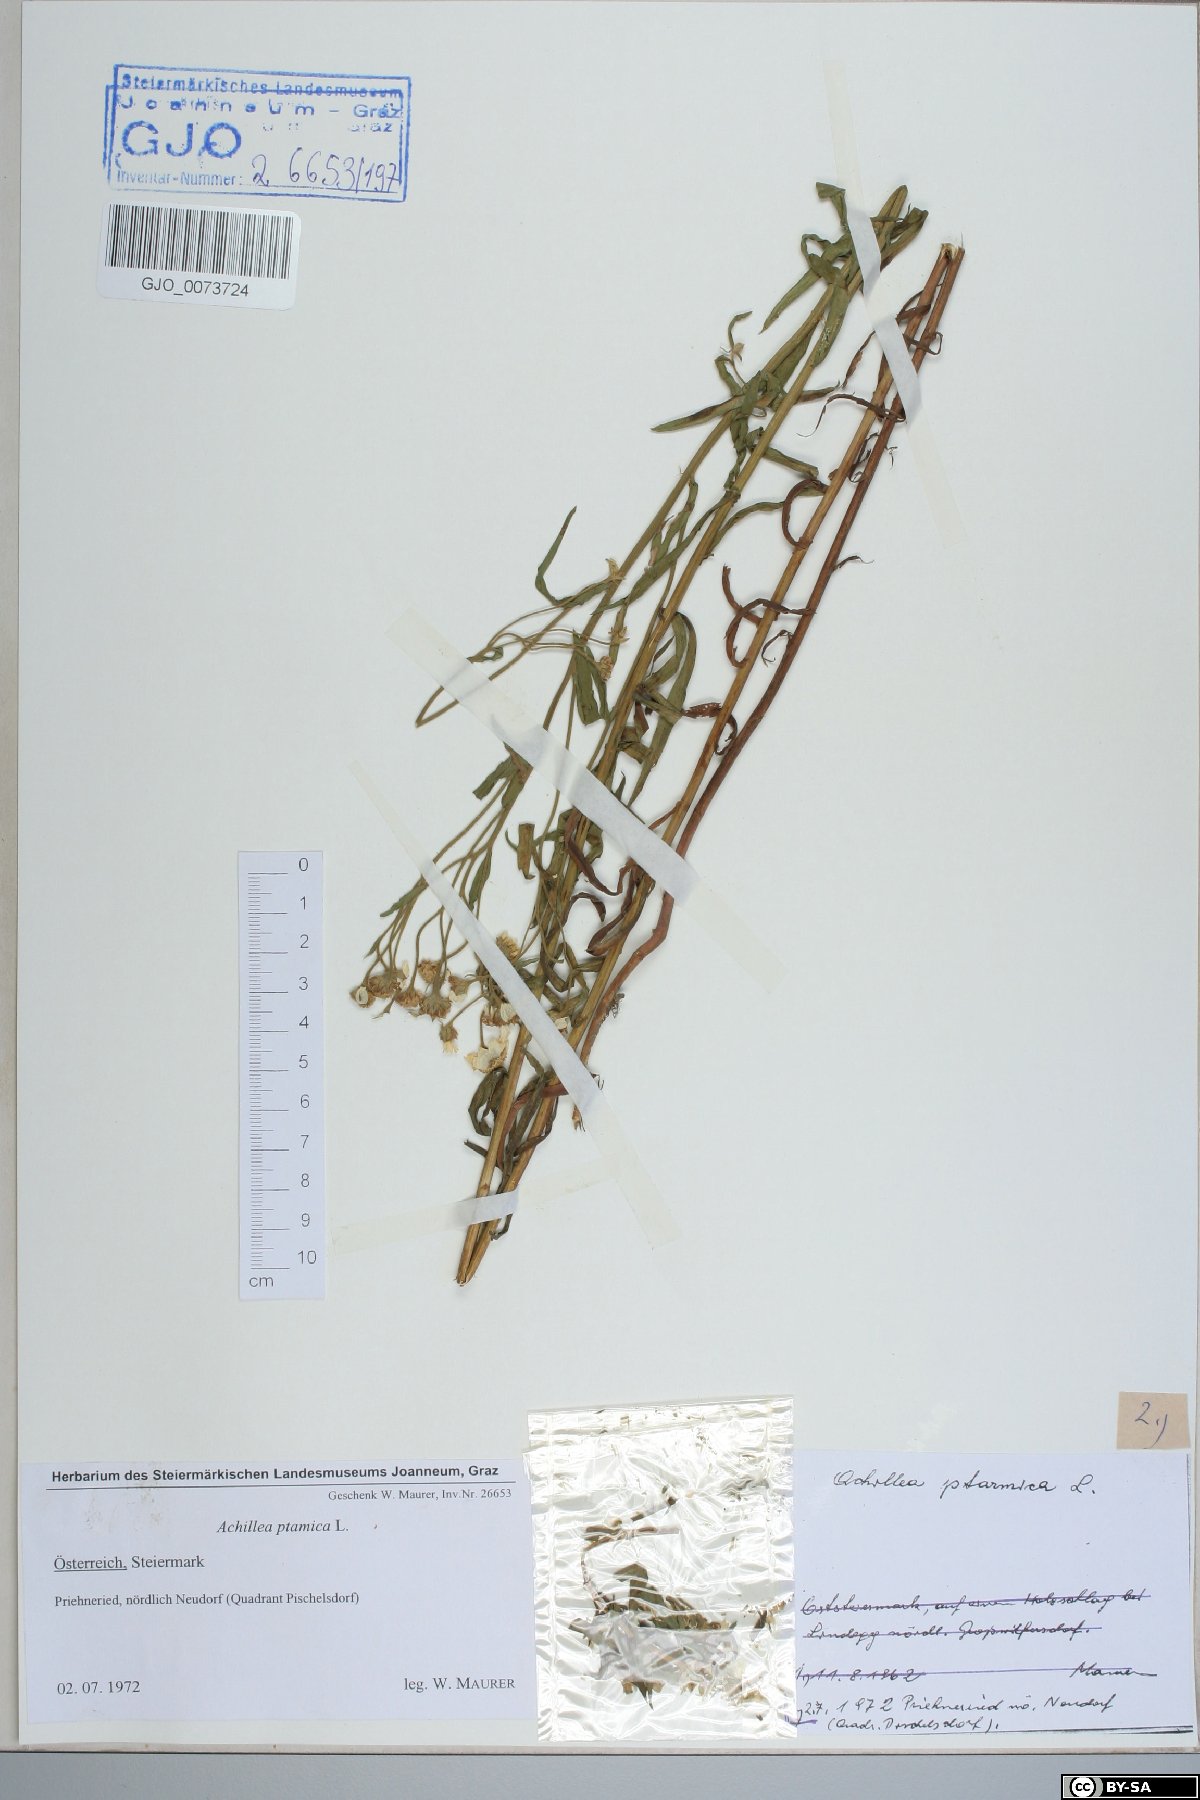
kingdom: Plantae
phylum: Tracheophyta
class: Magnoliopsida
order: Asterales
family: Asteraceae
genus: Achillea
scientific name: Achillea ptarmica
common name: Sneezeweed
